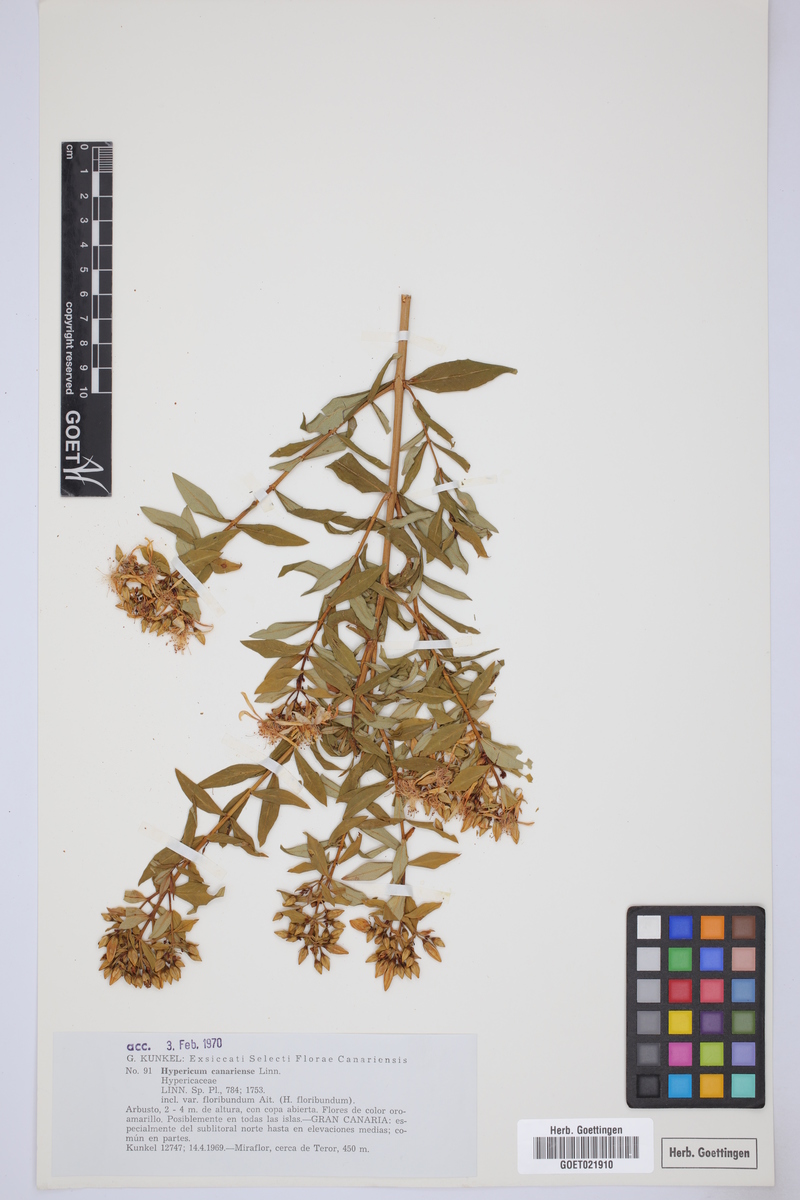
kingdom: Plantae
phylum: Tracheophyta
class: Magnoliopsida
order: Malpighiales
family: Hypericaceae
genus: Hypericum
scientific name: Hypericum canariense
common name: Canary island st. johnswort
